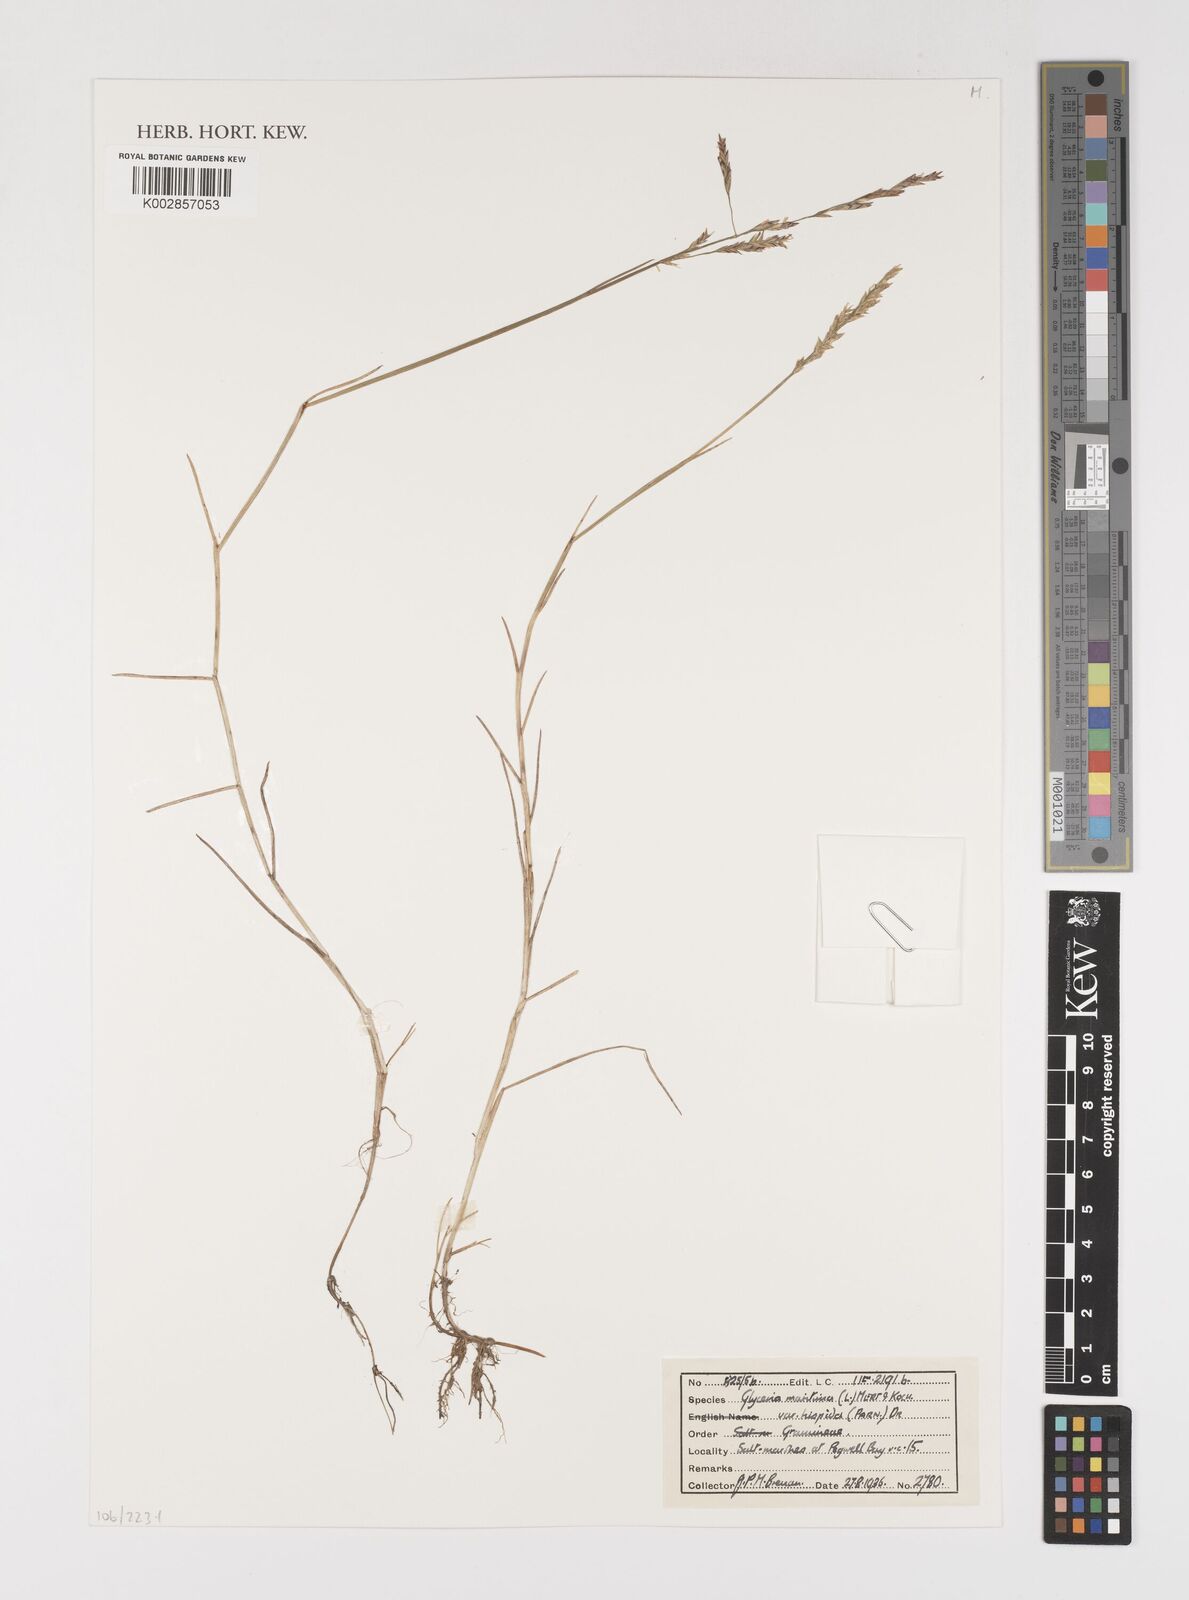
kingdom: Plantae
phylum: Tracheophyta
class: Liliopsida
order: Poales
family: Poaceae
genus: Puccinellia
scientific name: Puccinellia maritima
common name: Common saltmarsh grass
